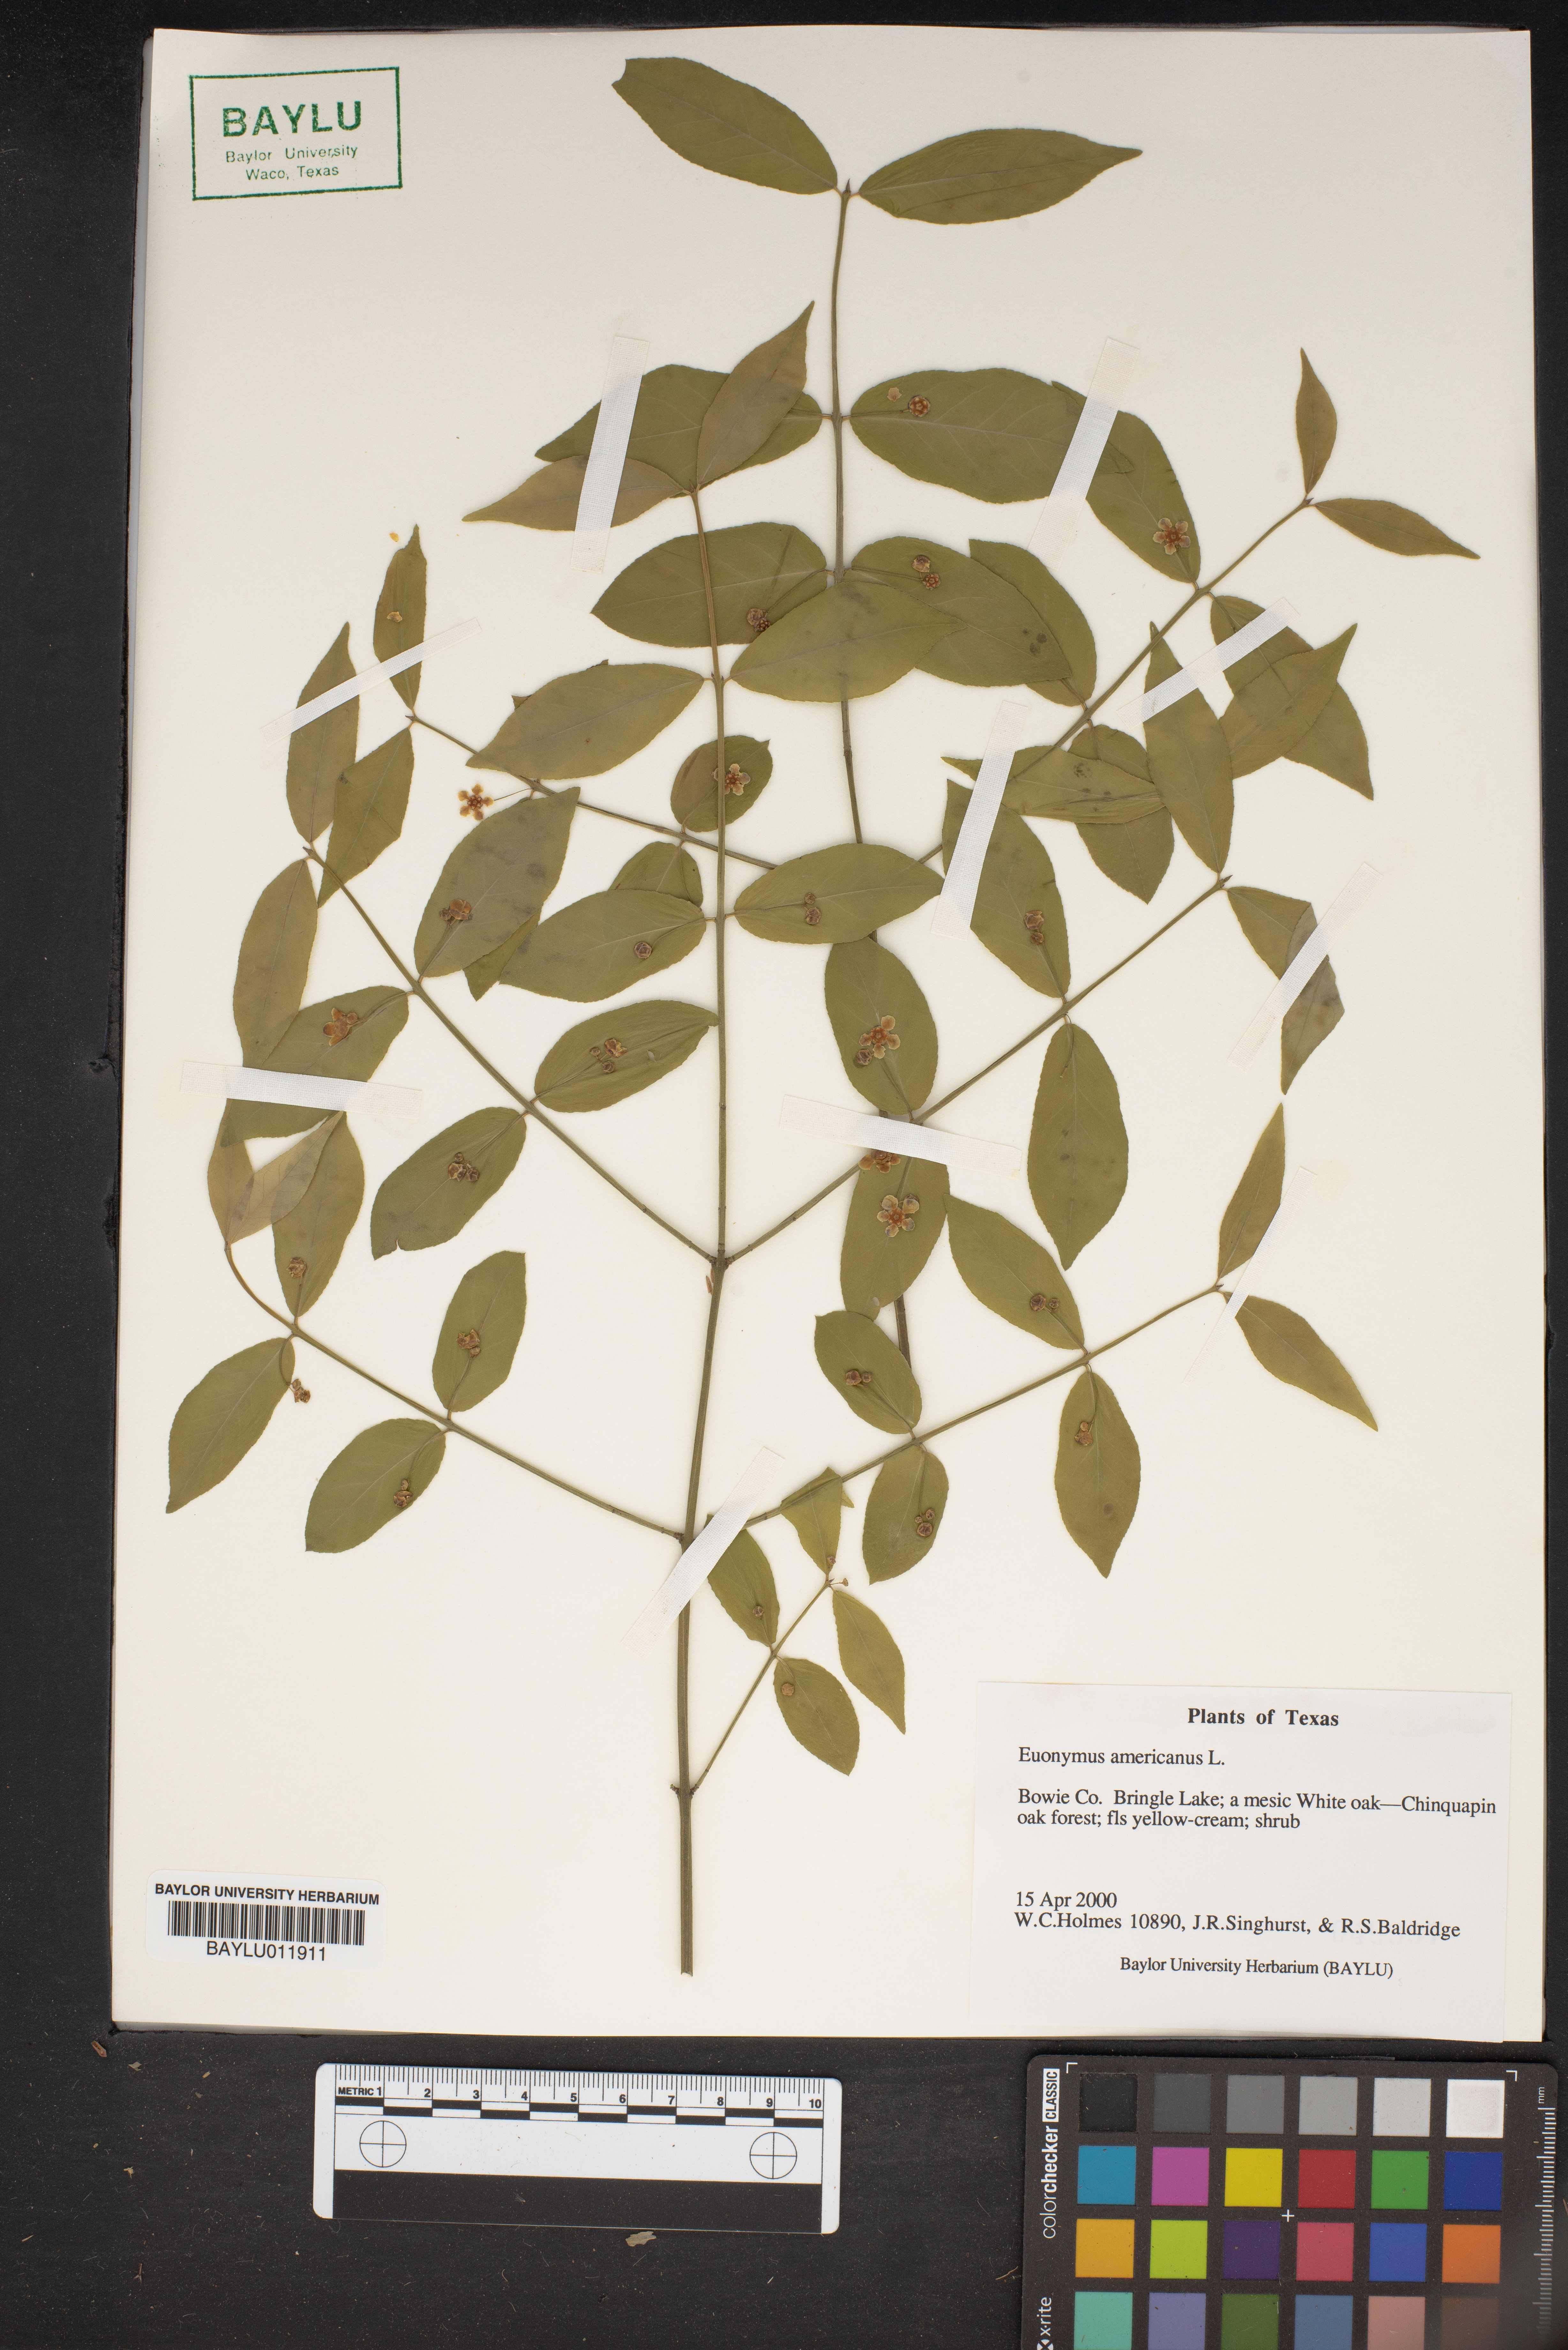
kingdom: Plantae
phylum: Tracheophyta
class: Magnoliopsida
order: Celastrales
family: Celastraceae
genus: Euonymus
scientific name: Euonymus americanus
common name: Bursting-heart
